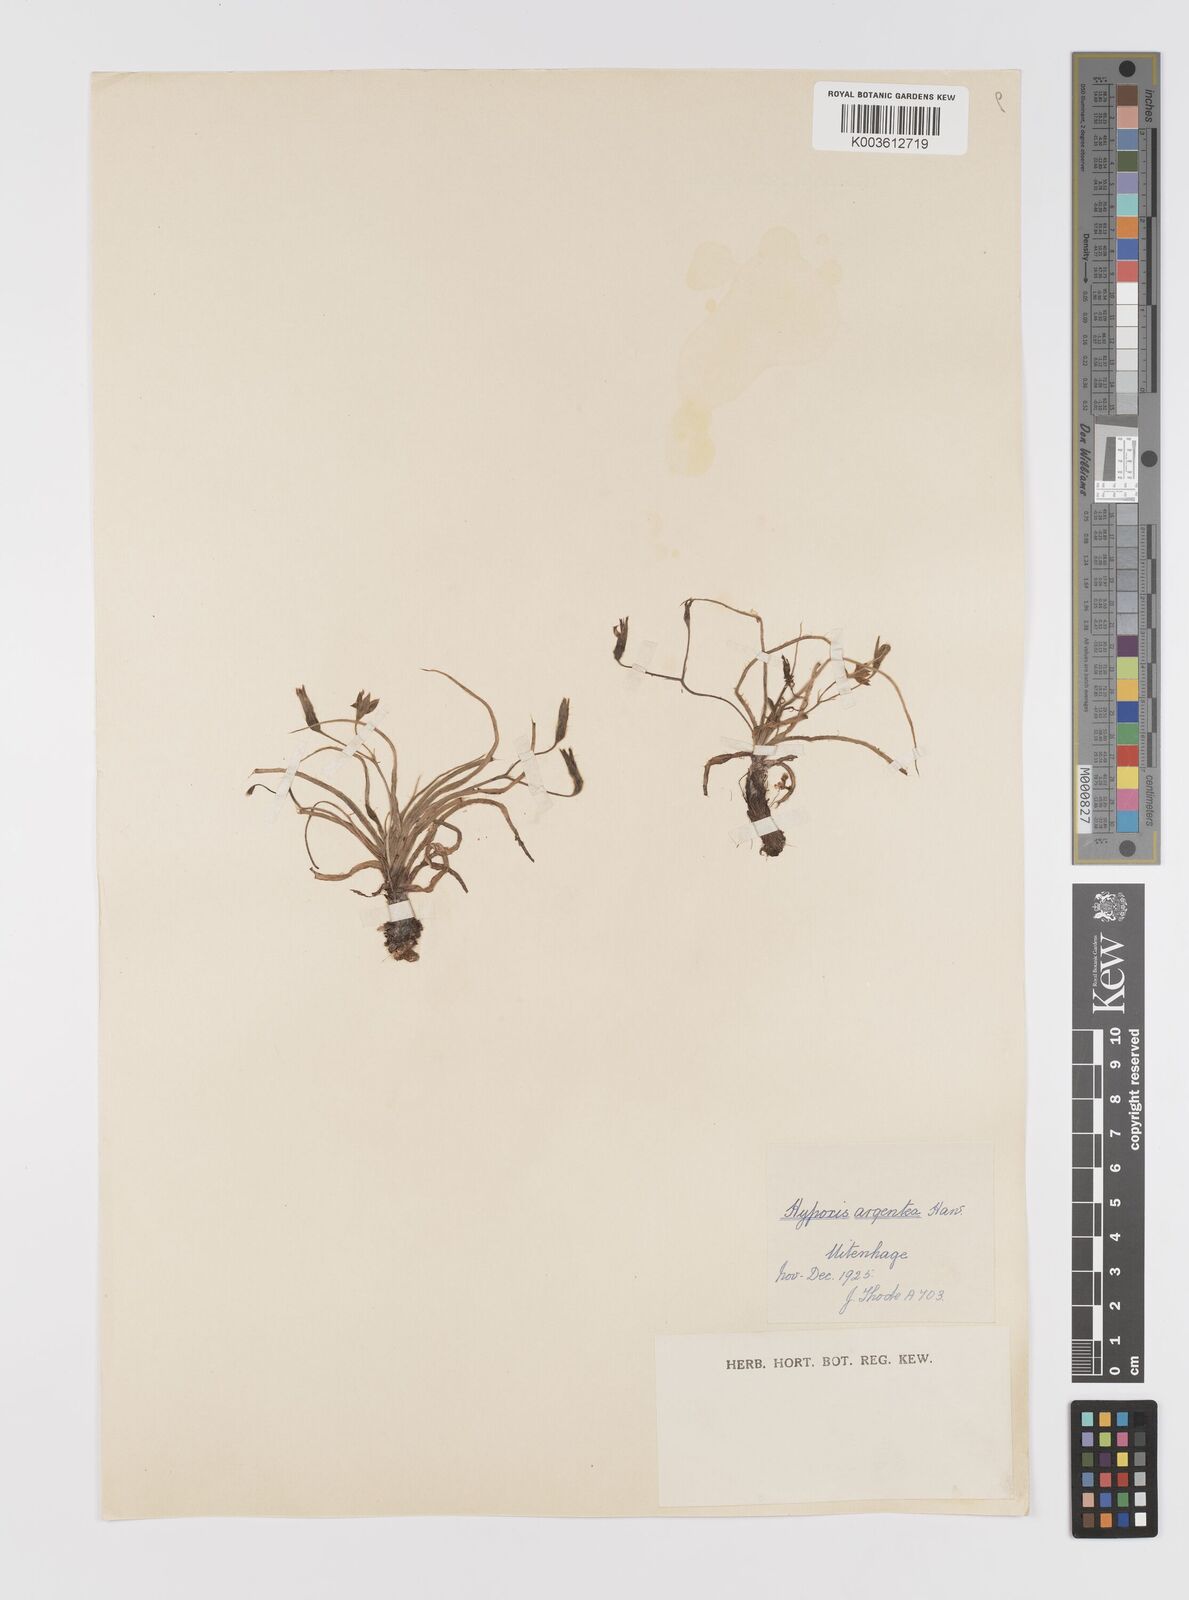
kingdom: Plantae
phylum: Tracheophyta
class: Liliopsida
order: Asparagales
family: Hypoxidaceae
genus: Hypoxis
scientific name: Hypoxis argentea
